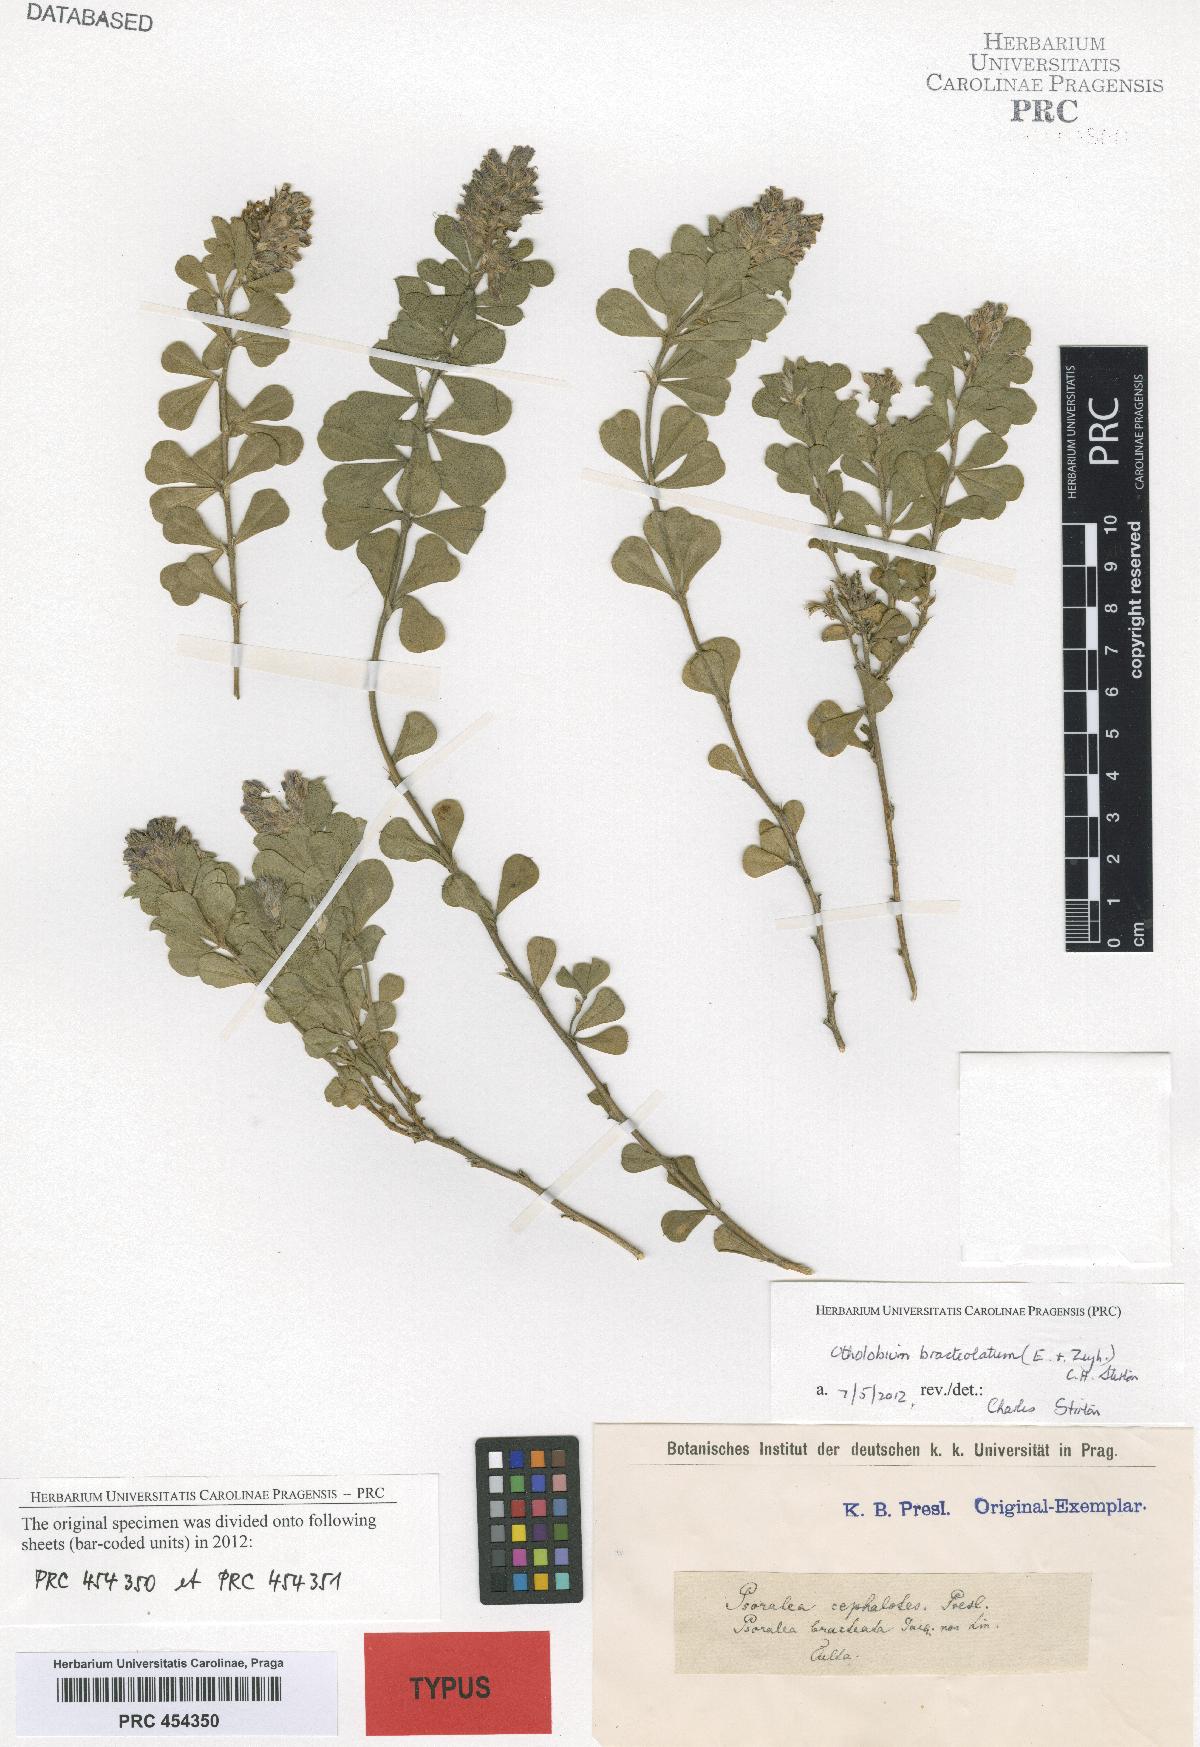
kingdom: Plantae
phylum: Tracheophyta
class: Magnoliopsida
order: Fabales
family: Fabaceae
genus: Psoralea
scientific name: Psoralea fruticans
